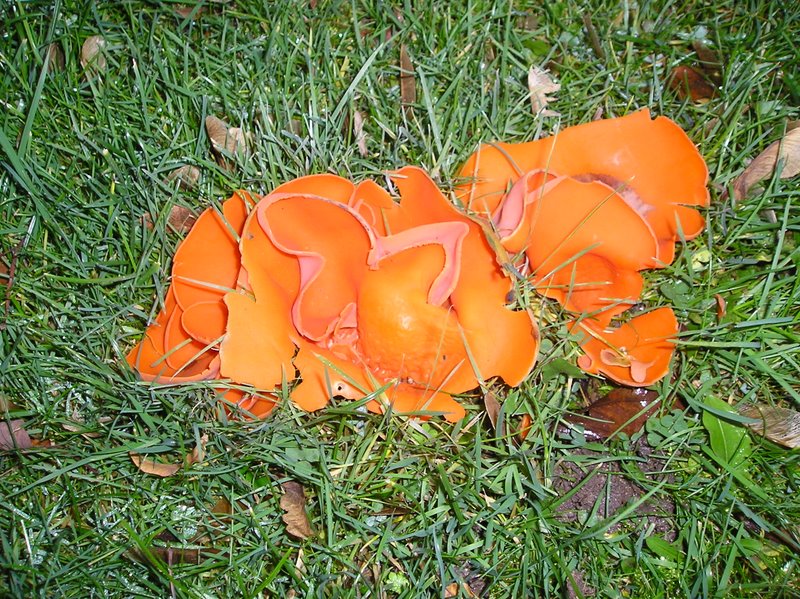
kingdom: Fungi
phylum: Ascomycota
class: Pezizomycetes
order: Pezizales
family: Pyronemataceae
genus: Aleuria
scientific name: Aleuria aurantia
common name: almindelig orangebæger
